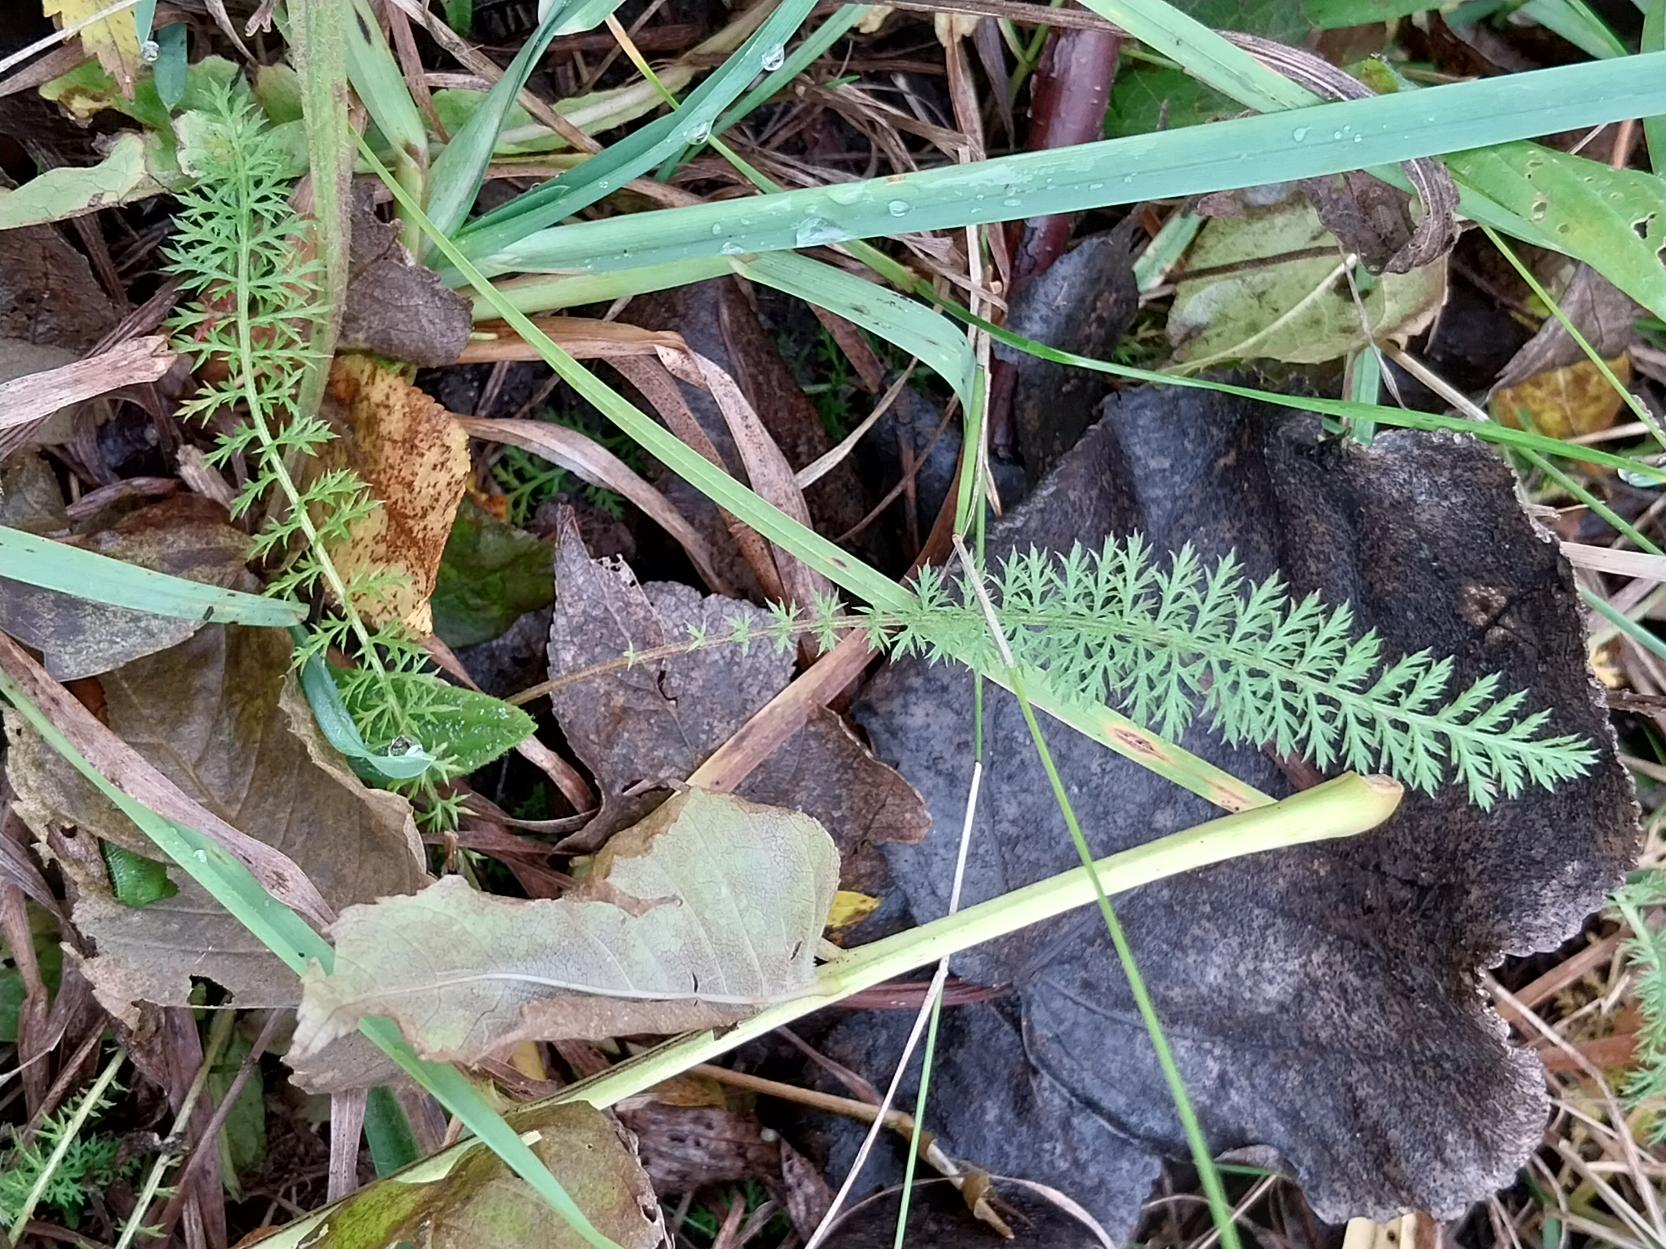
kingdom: Plantae
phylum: Tracheophyta
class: Magnoliopsida
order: Asterales
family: Asteraceae
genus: Achillea
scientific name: Achillea millefolium
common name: Almindelig røllike
